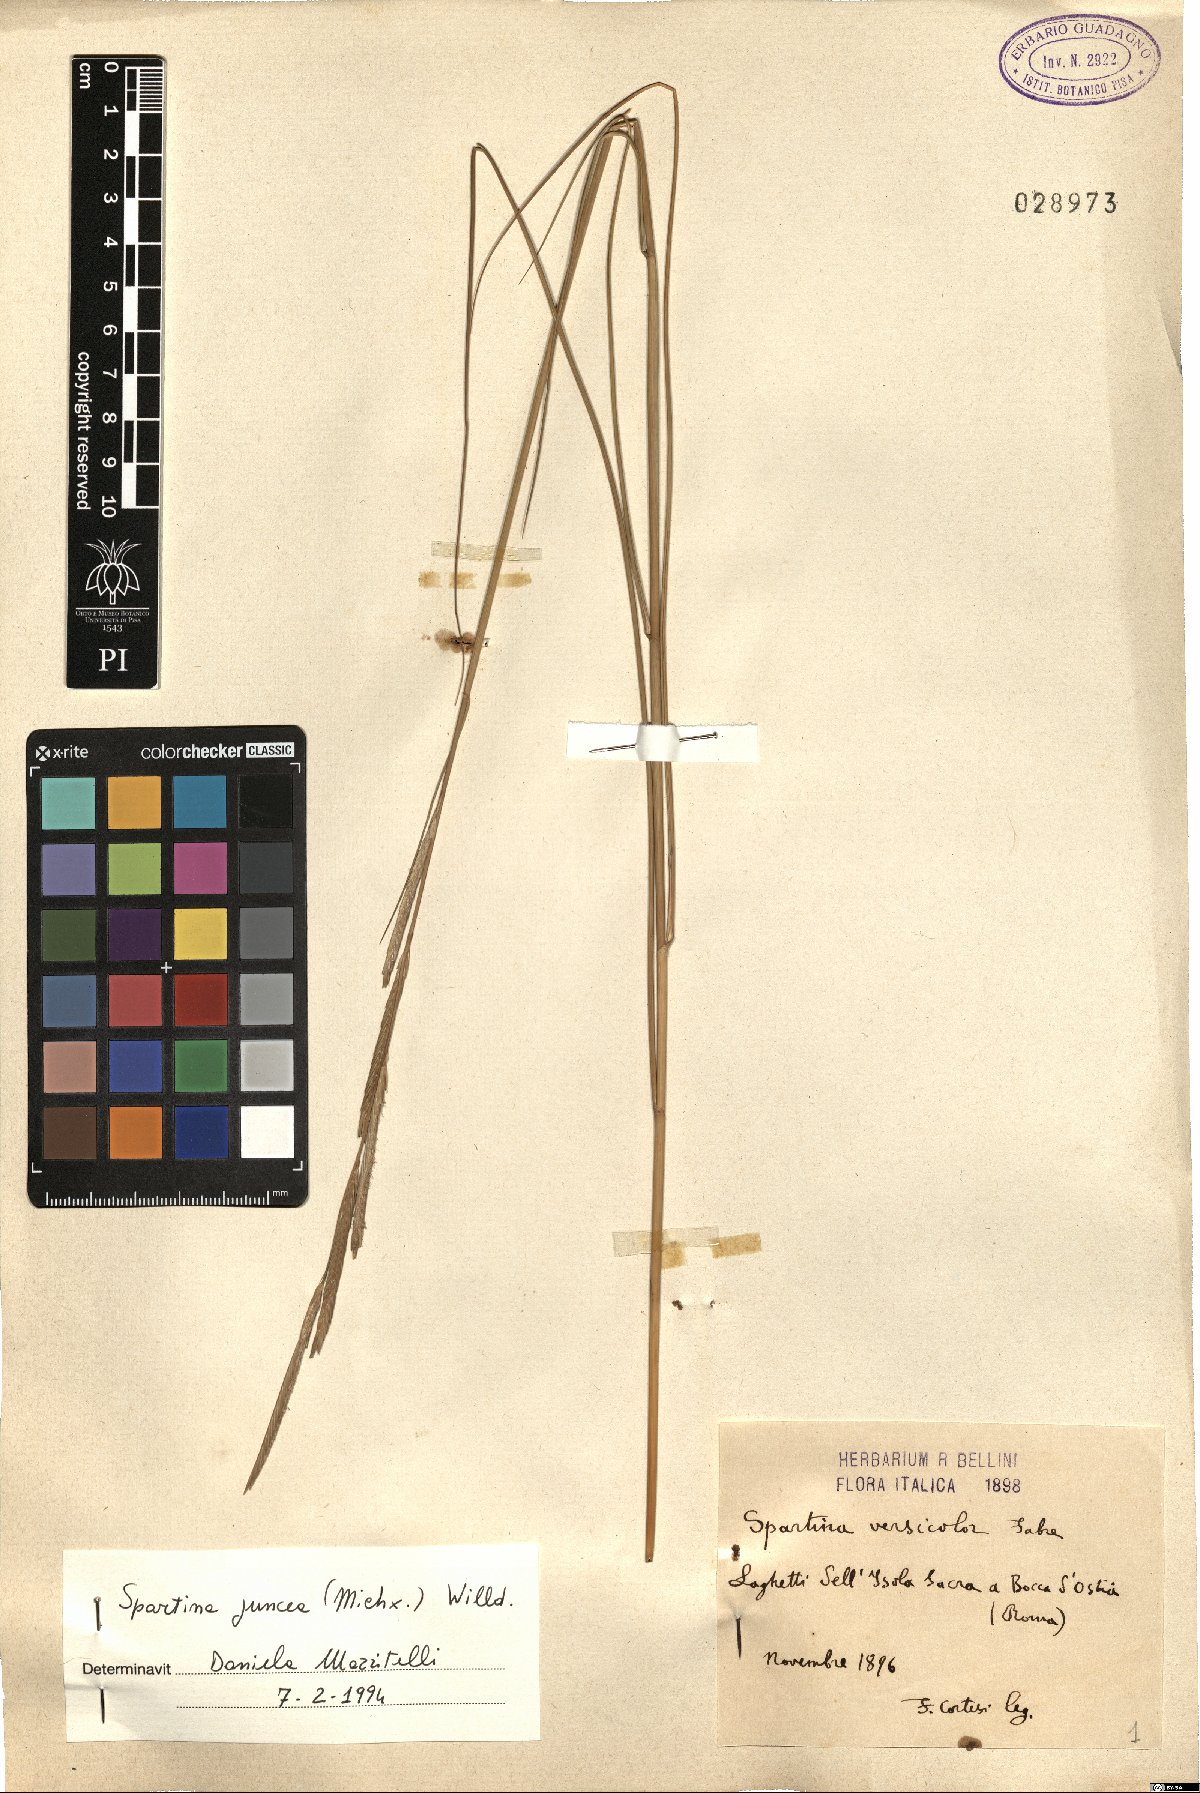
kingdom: Plantae
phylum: Tracheophyta
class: Liliopsida
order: Poales
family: Poaceae
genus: Sporobolus
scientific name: Sporobolus pumilus
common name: Highwater grass
